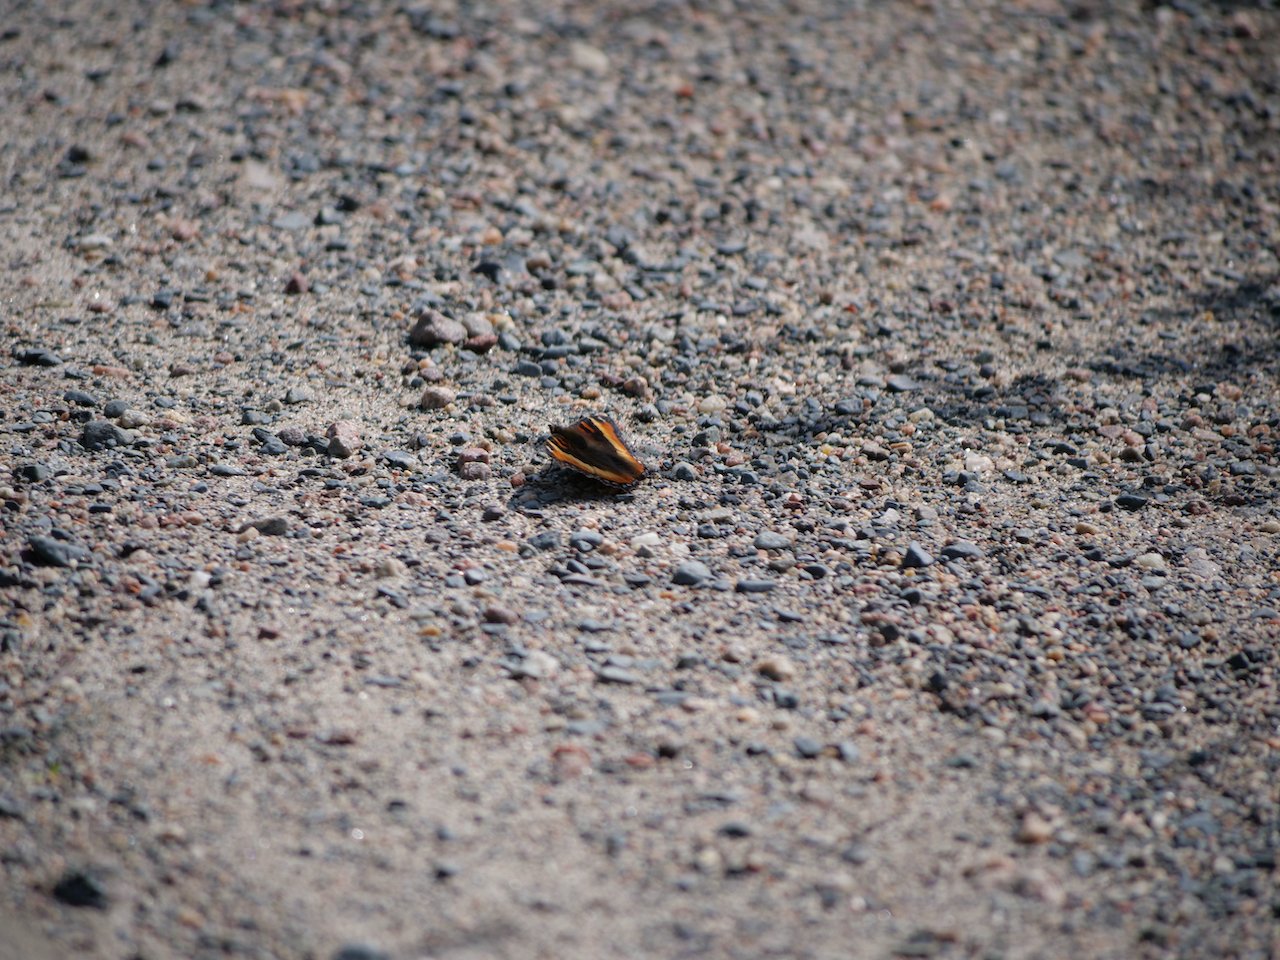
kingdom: Animalia
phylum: Arthropoda
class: Insecta
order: Lepidoptera
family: Nymphalidae
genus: Aglais
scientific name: Aglais milberti
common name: Milbert's Tortoiseshell
